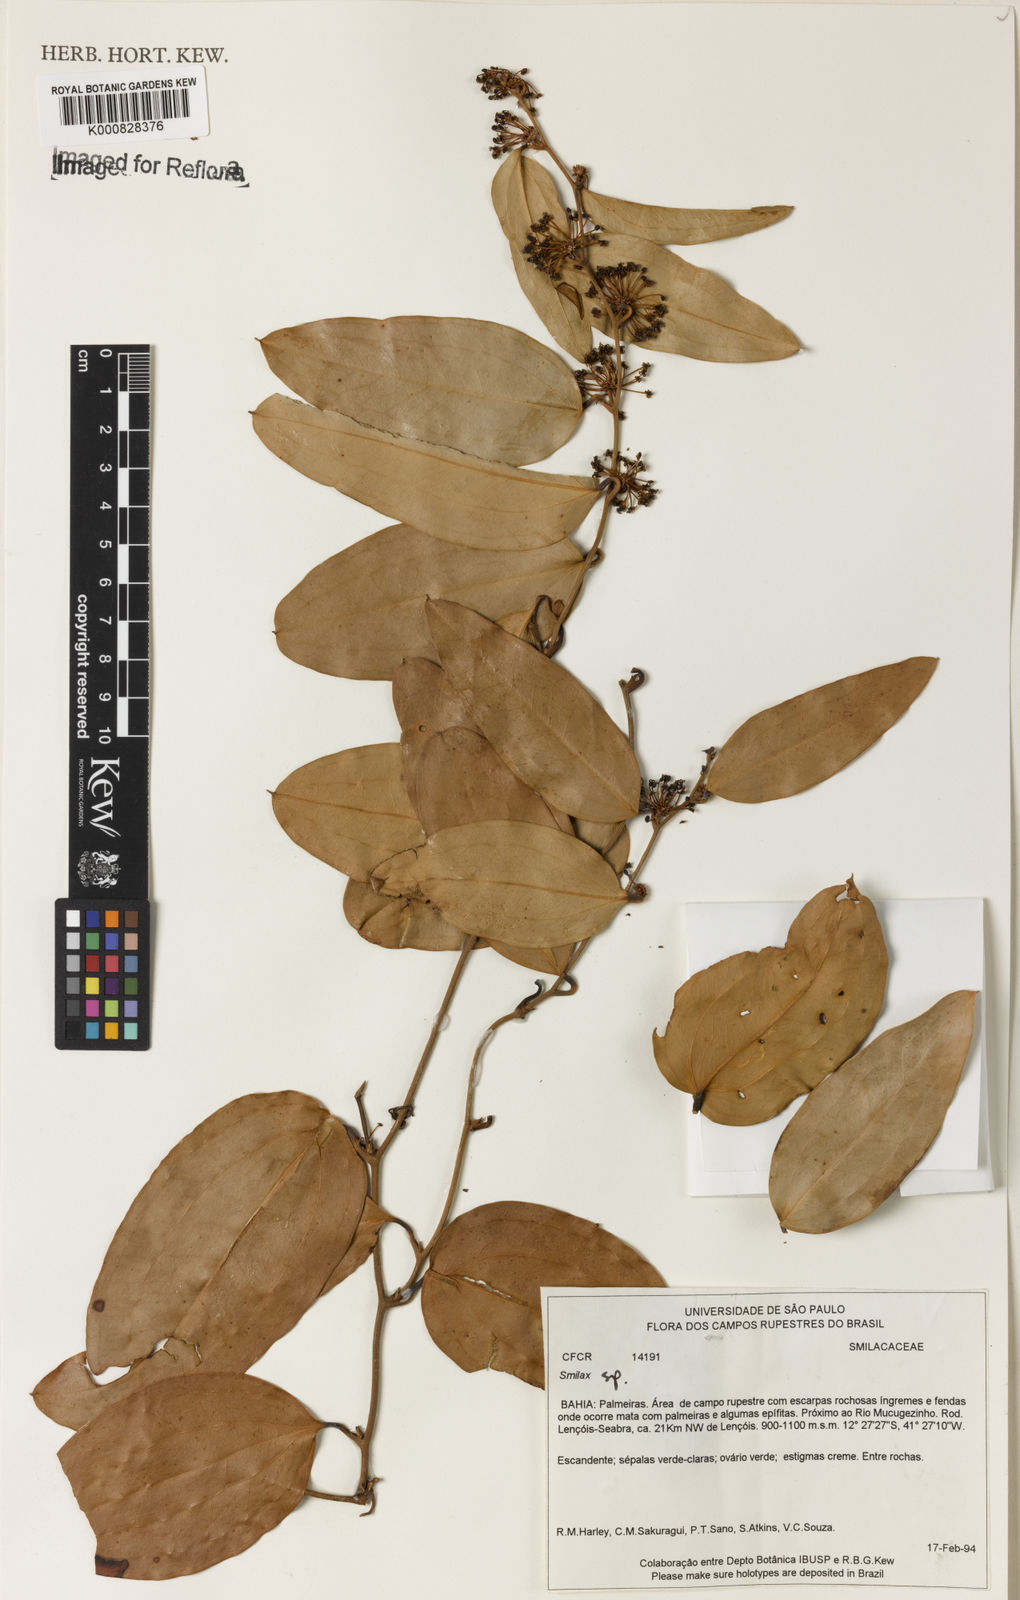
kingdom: Plantae
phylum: Tracheophyta
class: Liliopsida
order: Liliales
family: Smilacaceae
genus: Smilax
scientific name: Smilax
